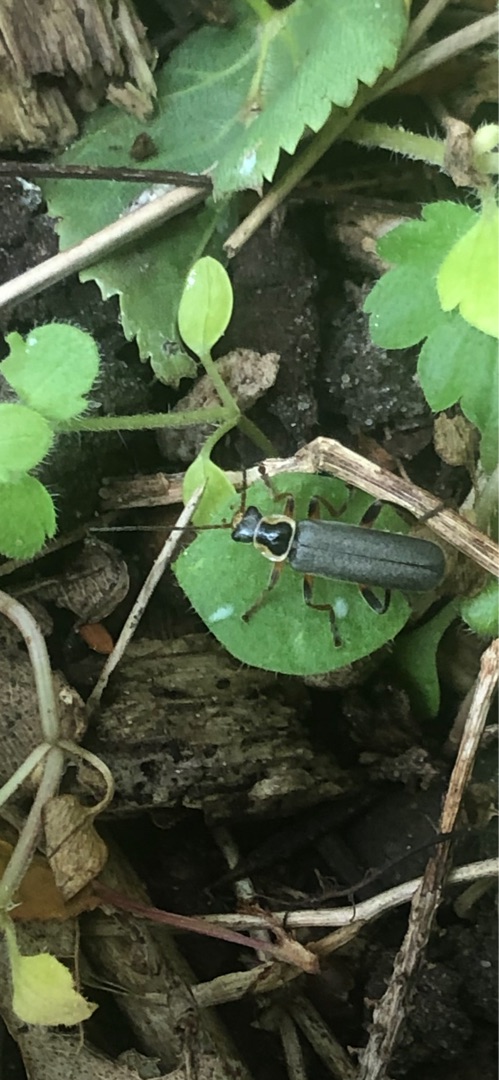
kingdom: Animalia
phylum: Arthropoda
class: Insecta
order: Coleoptera
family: Cantharidae
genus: Cantharis
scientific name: Cantharis nigricans
